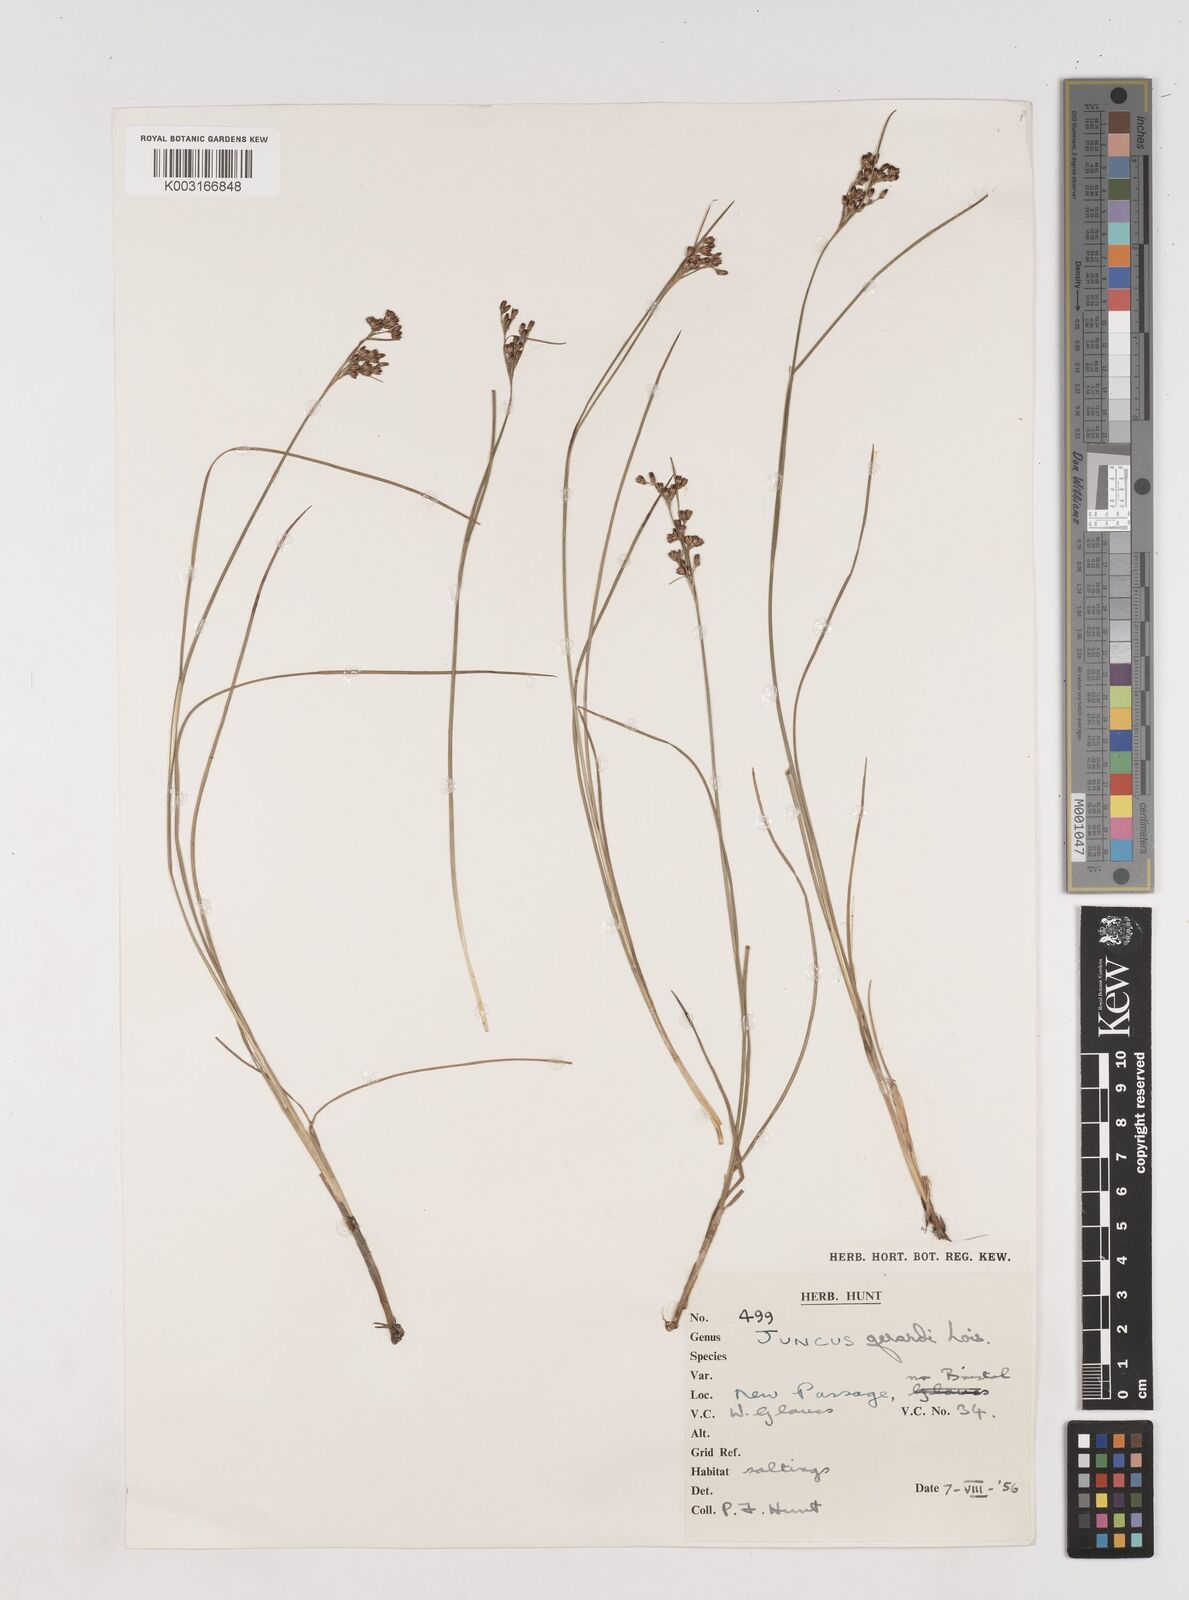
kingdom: Plantae
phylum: Tracheophyta
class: Liliopsida
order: Poales
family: Juncaceae
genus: Juncus
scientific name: Juncus gerardi
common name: Saltmarsh rush
